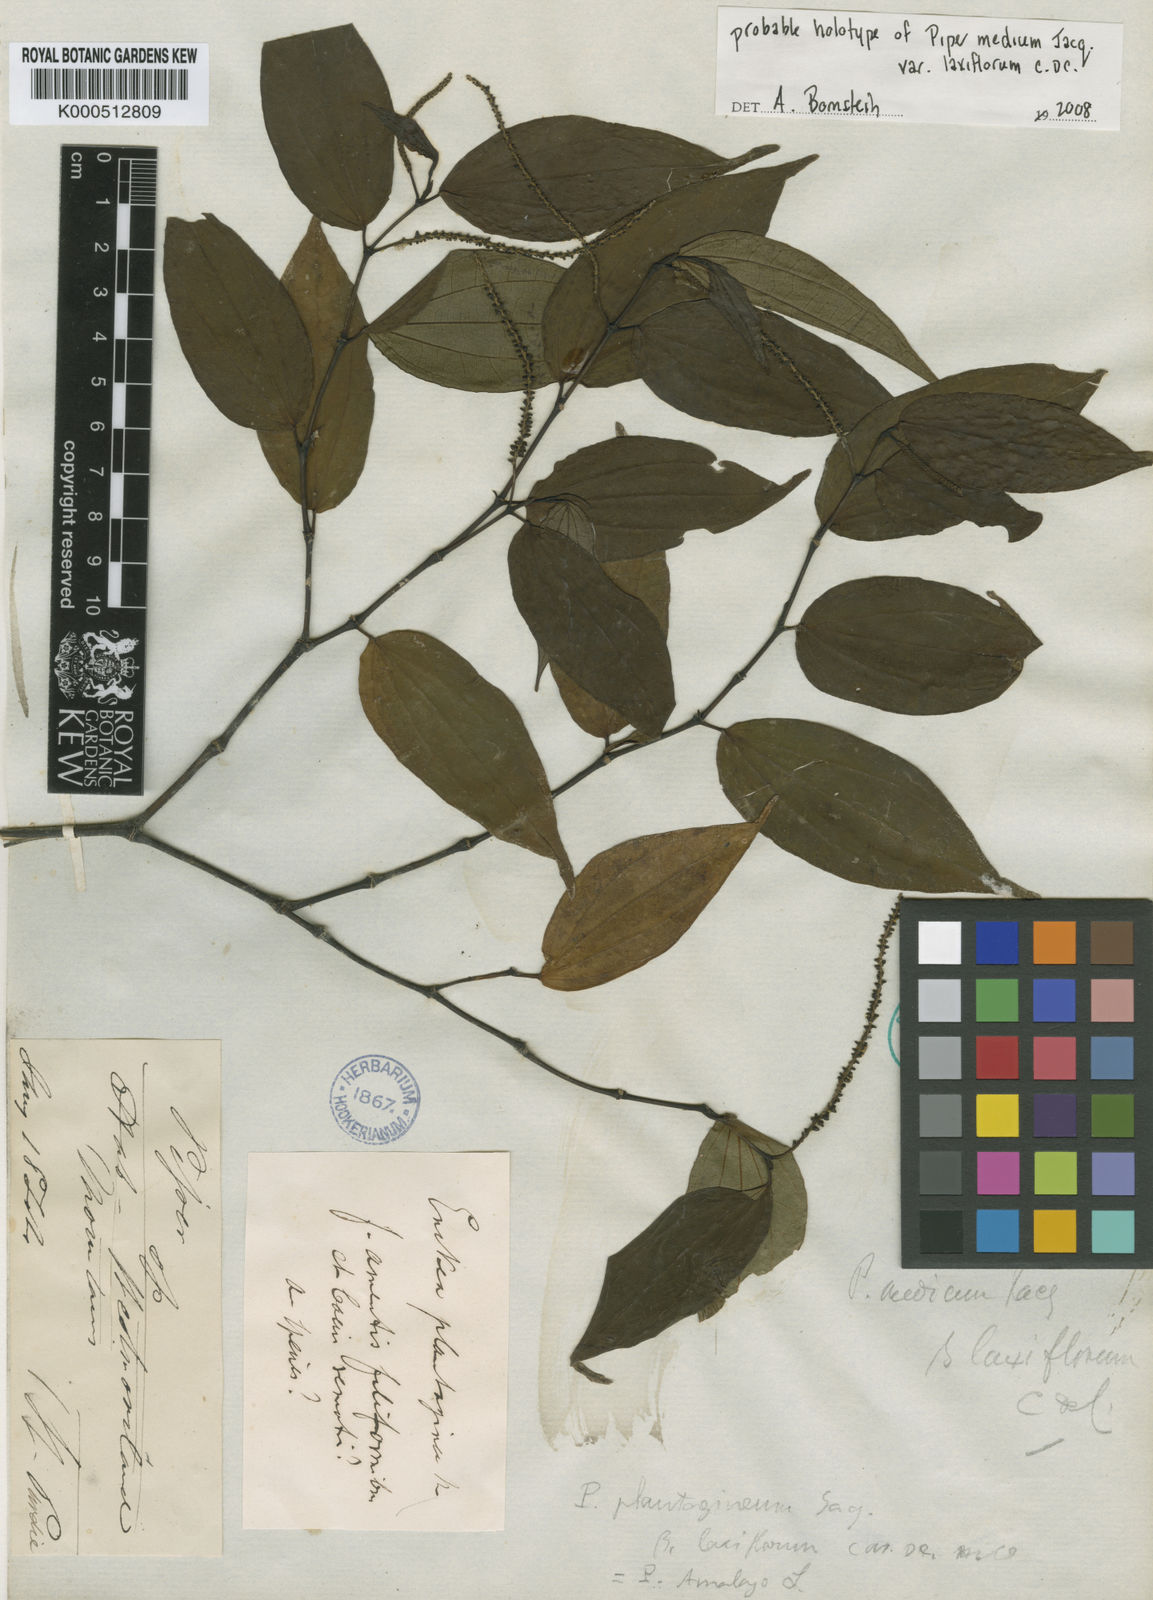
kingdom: Plantae
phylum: Tracheophyta
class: Magnoliopsida
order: Piperales
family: Piperaceae
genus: Piper
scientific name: Piper amalago
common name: Pepper-elder
